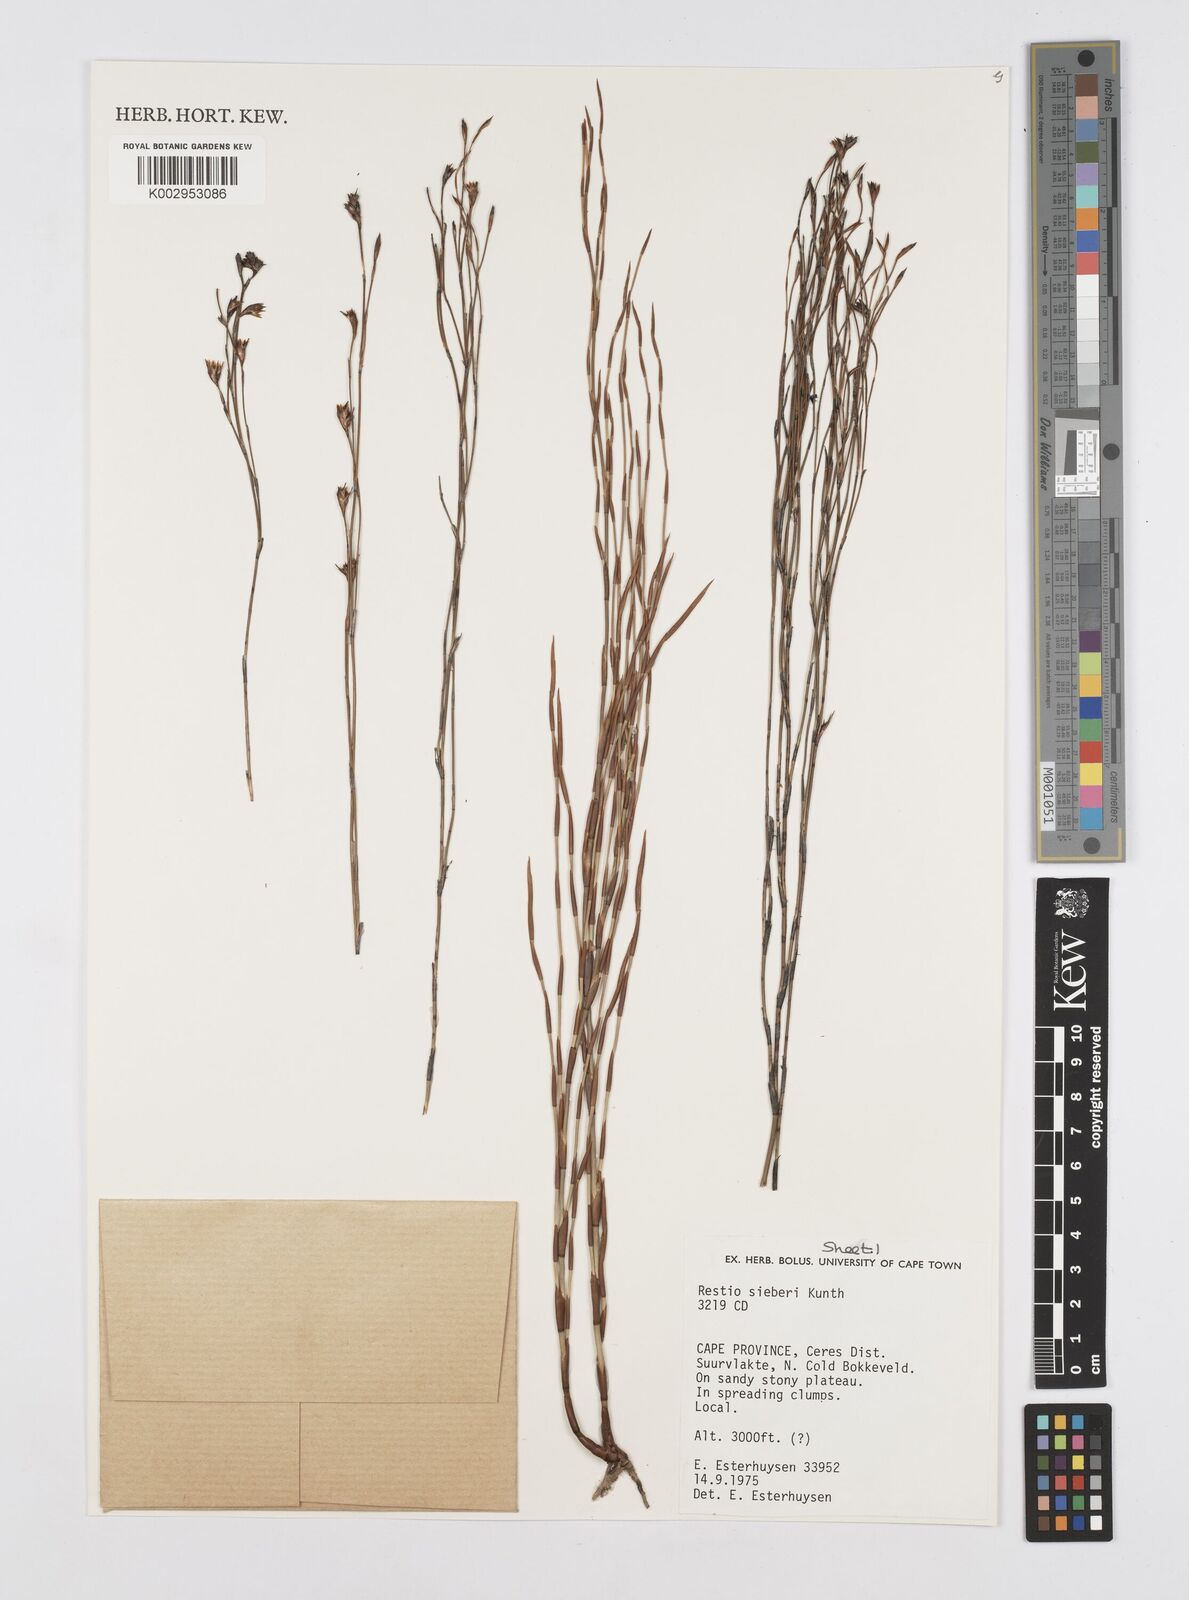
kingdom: Plantae
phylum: Tracheophyta
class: Liliopsida
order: Poales
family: Restionaceae
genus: Restio
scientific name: Restio sieberi
